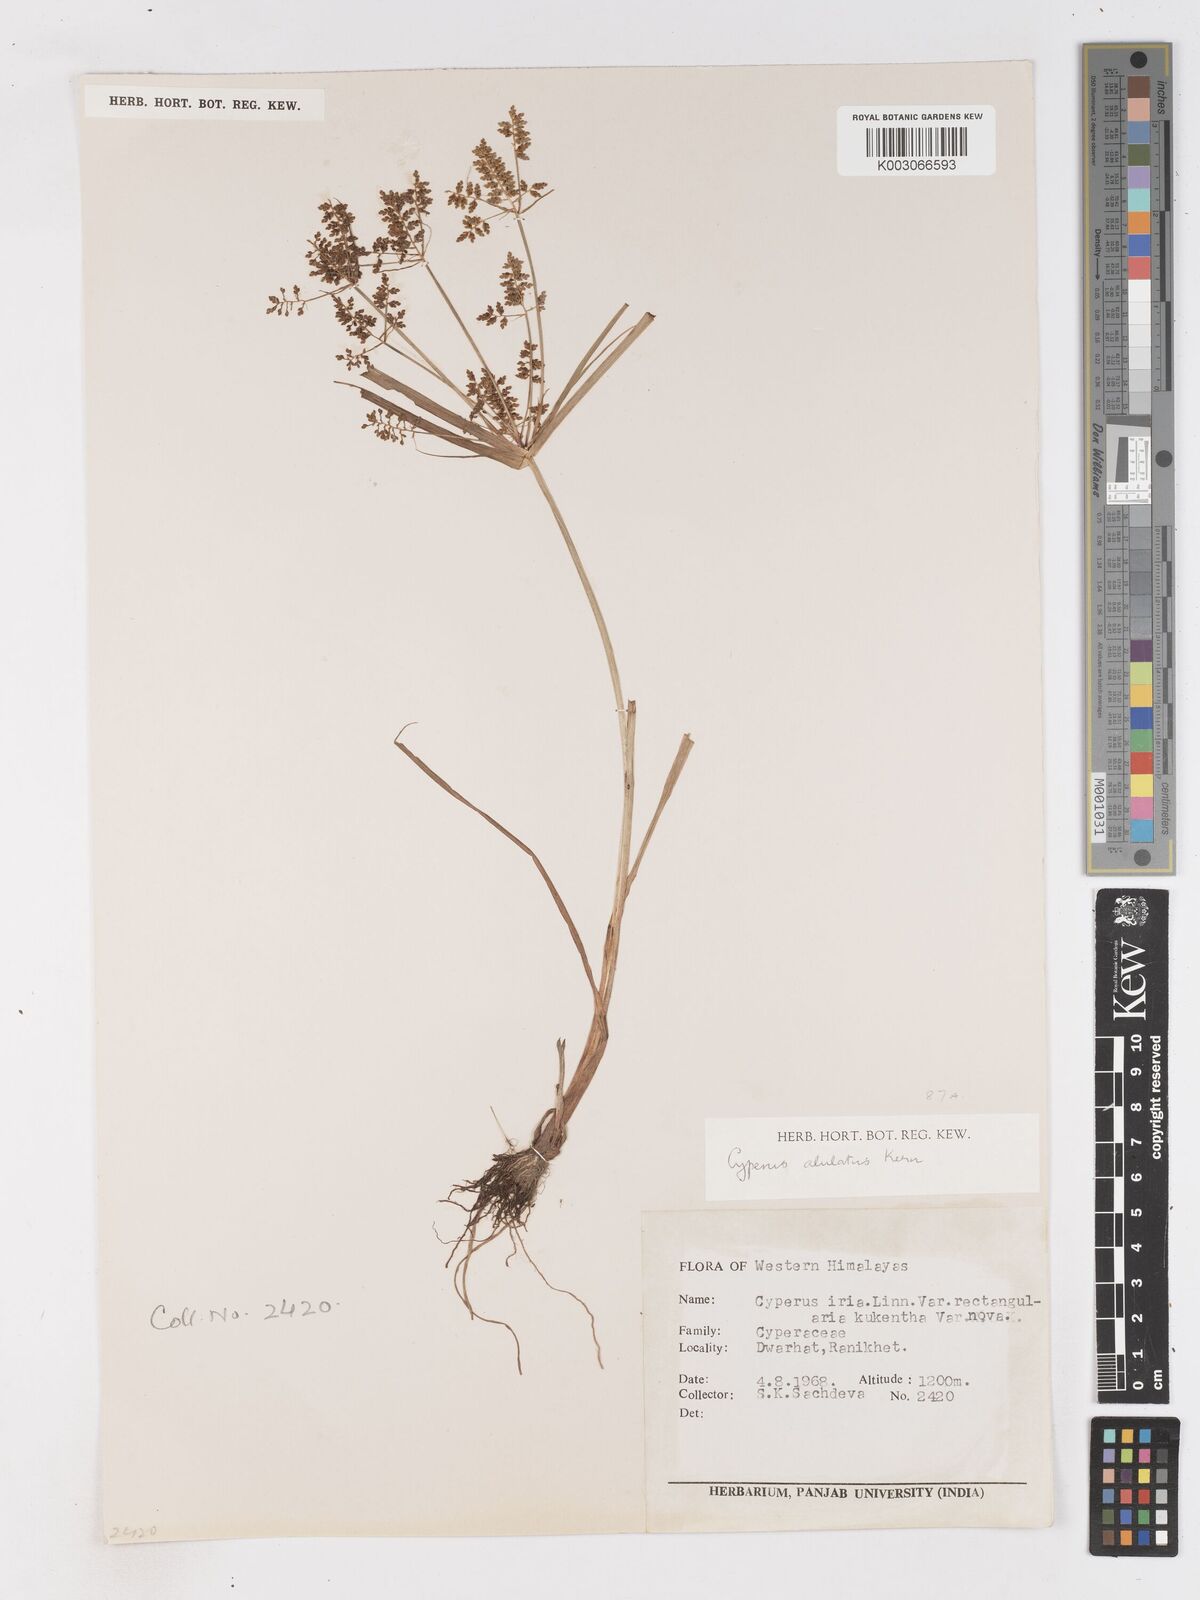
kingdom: Plantae
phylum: Tracheophyta
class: Liliopsida
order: Poales
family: Cyperaceae
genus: Cyperus
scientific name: Cyperus alulatus
